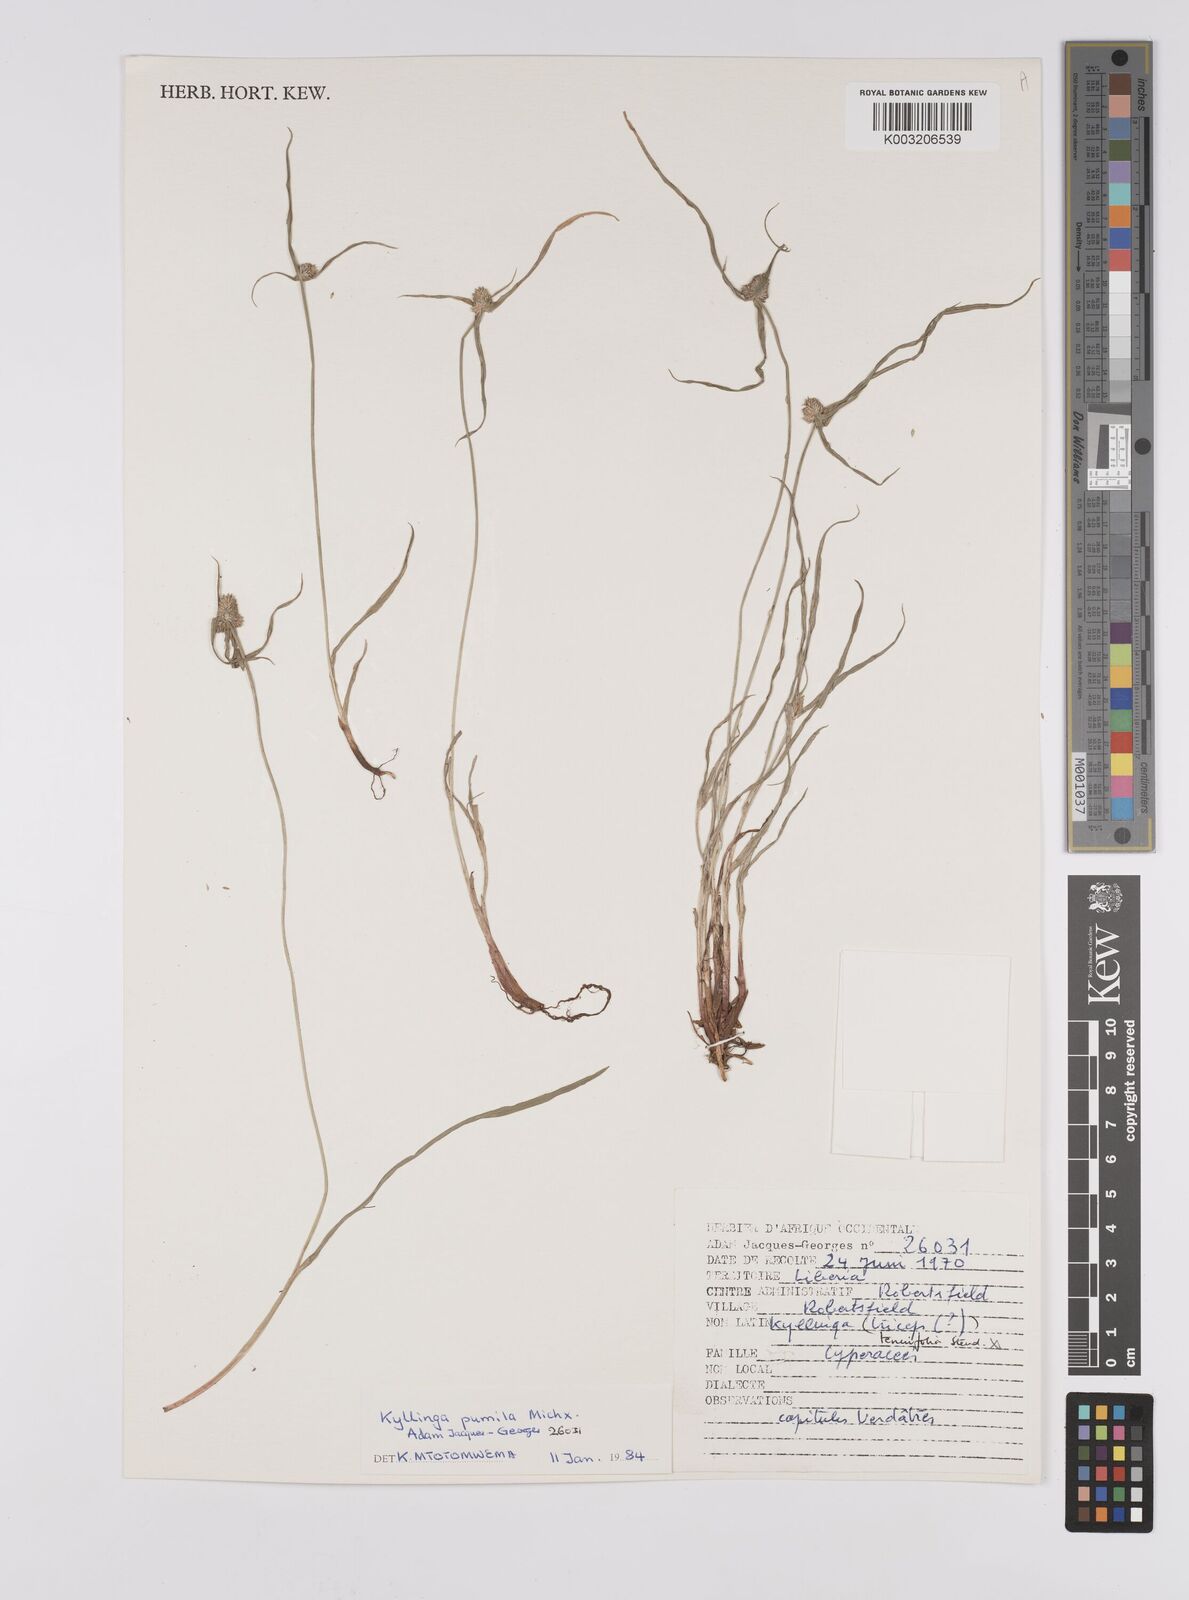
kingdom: Plantae
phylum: Tracheophyta
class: Liliopsida
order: Poales
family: Cyperaceae
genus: Cyperus
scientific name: Cyperus
